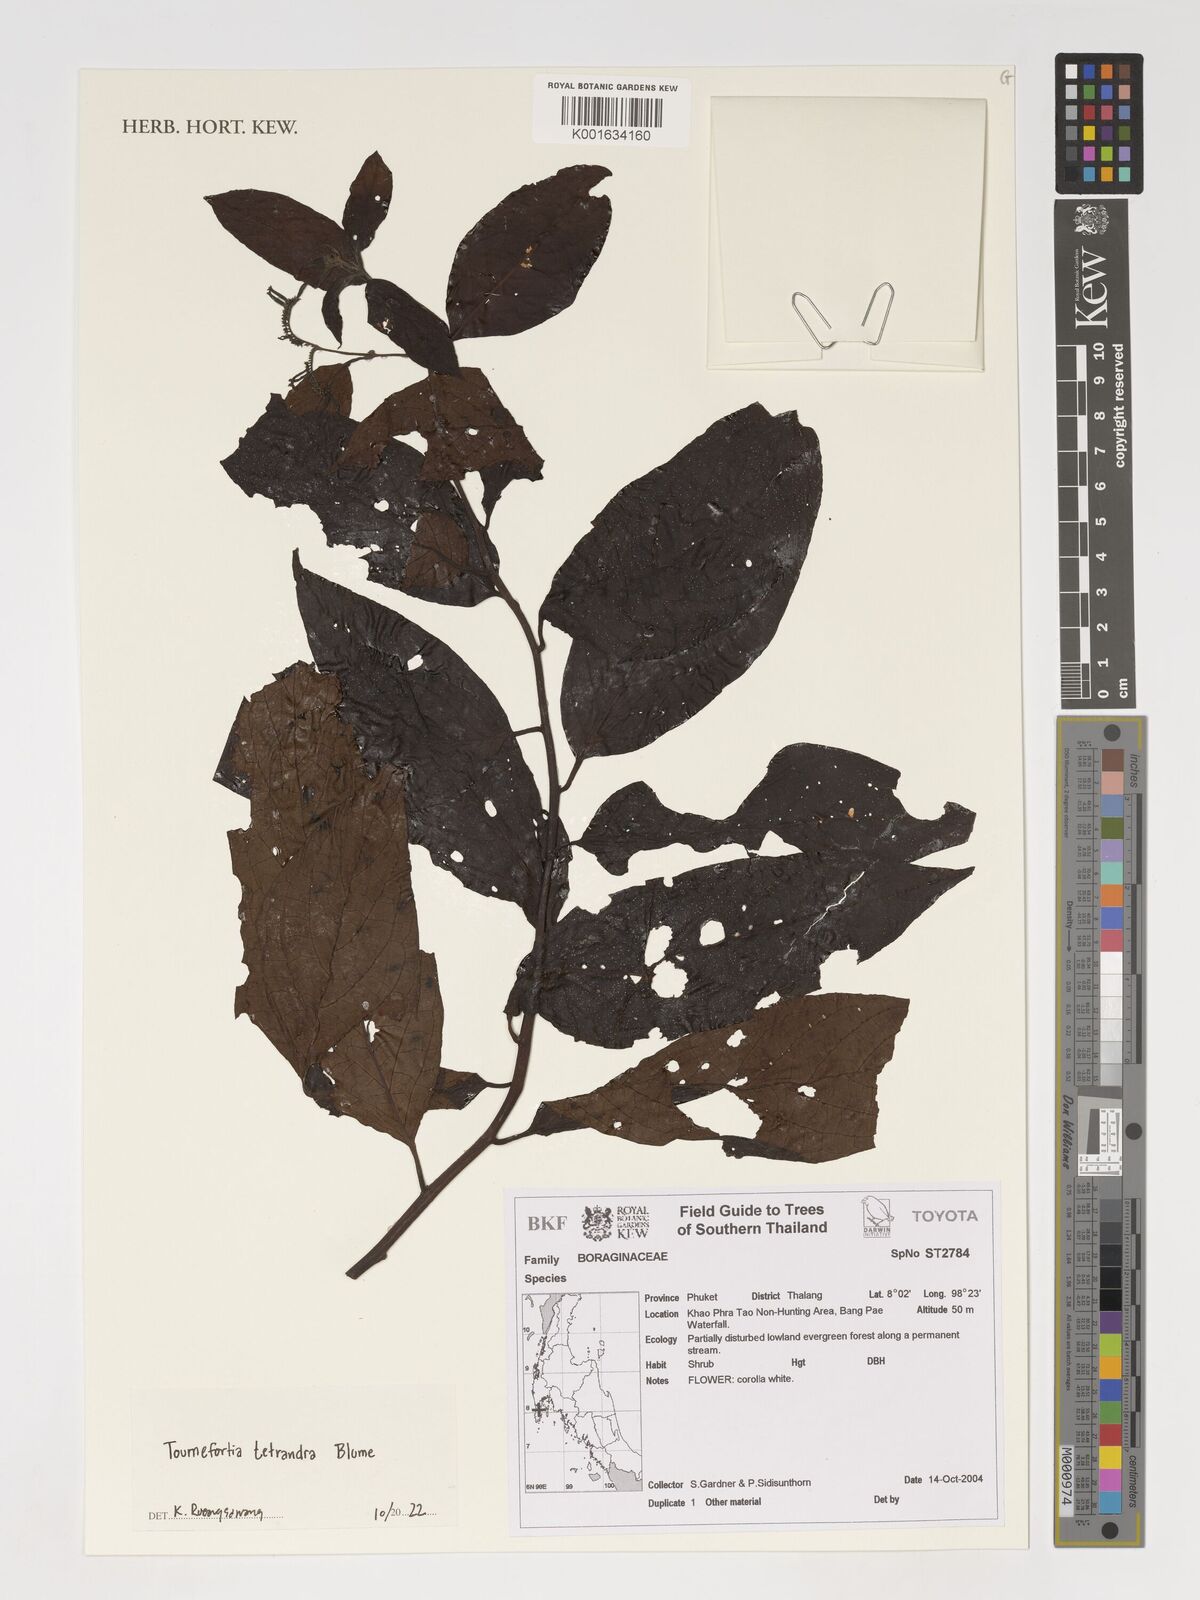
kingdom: Plantae
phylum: Tracheophyta
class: Magnoliopsida
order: Boraginales
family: Heliotropiaceae
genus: Heliotropium
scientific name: Heliotropium biblianum
